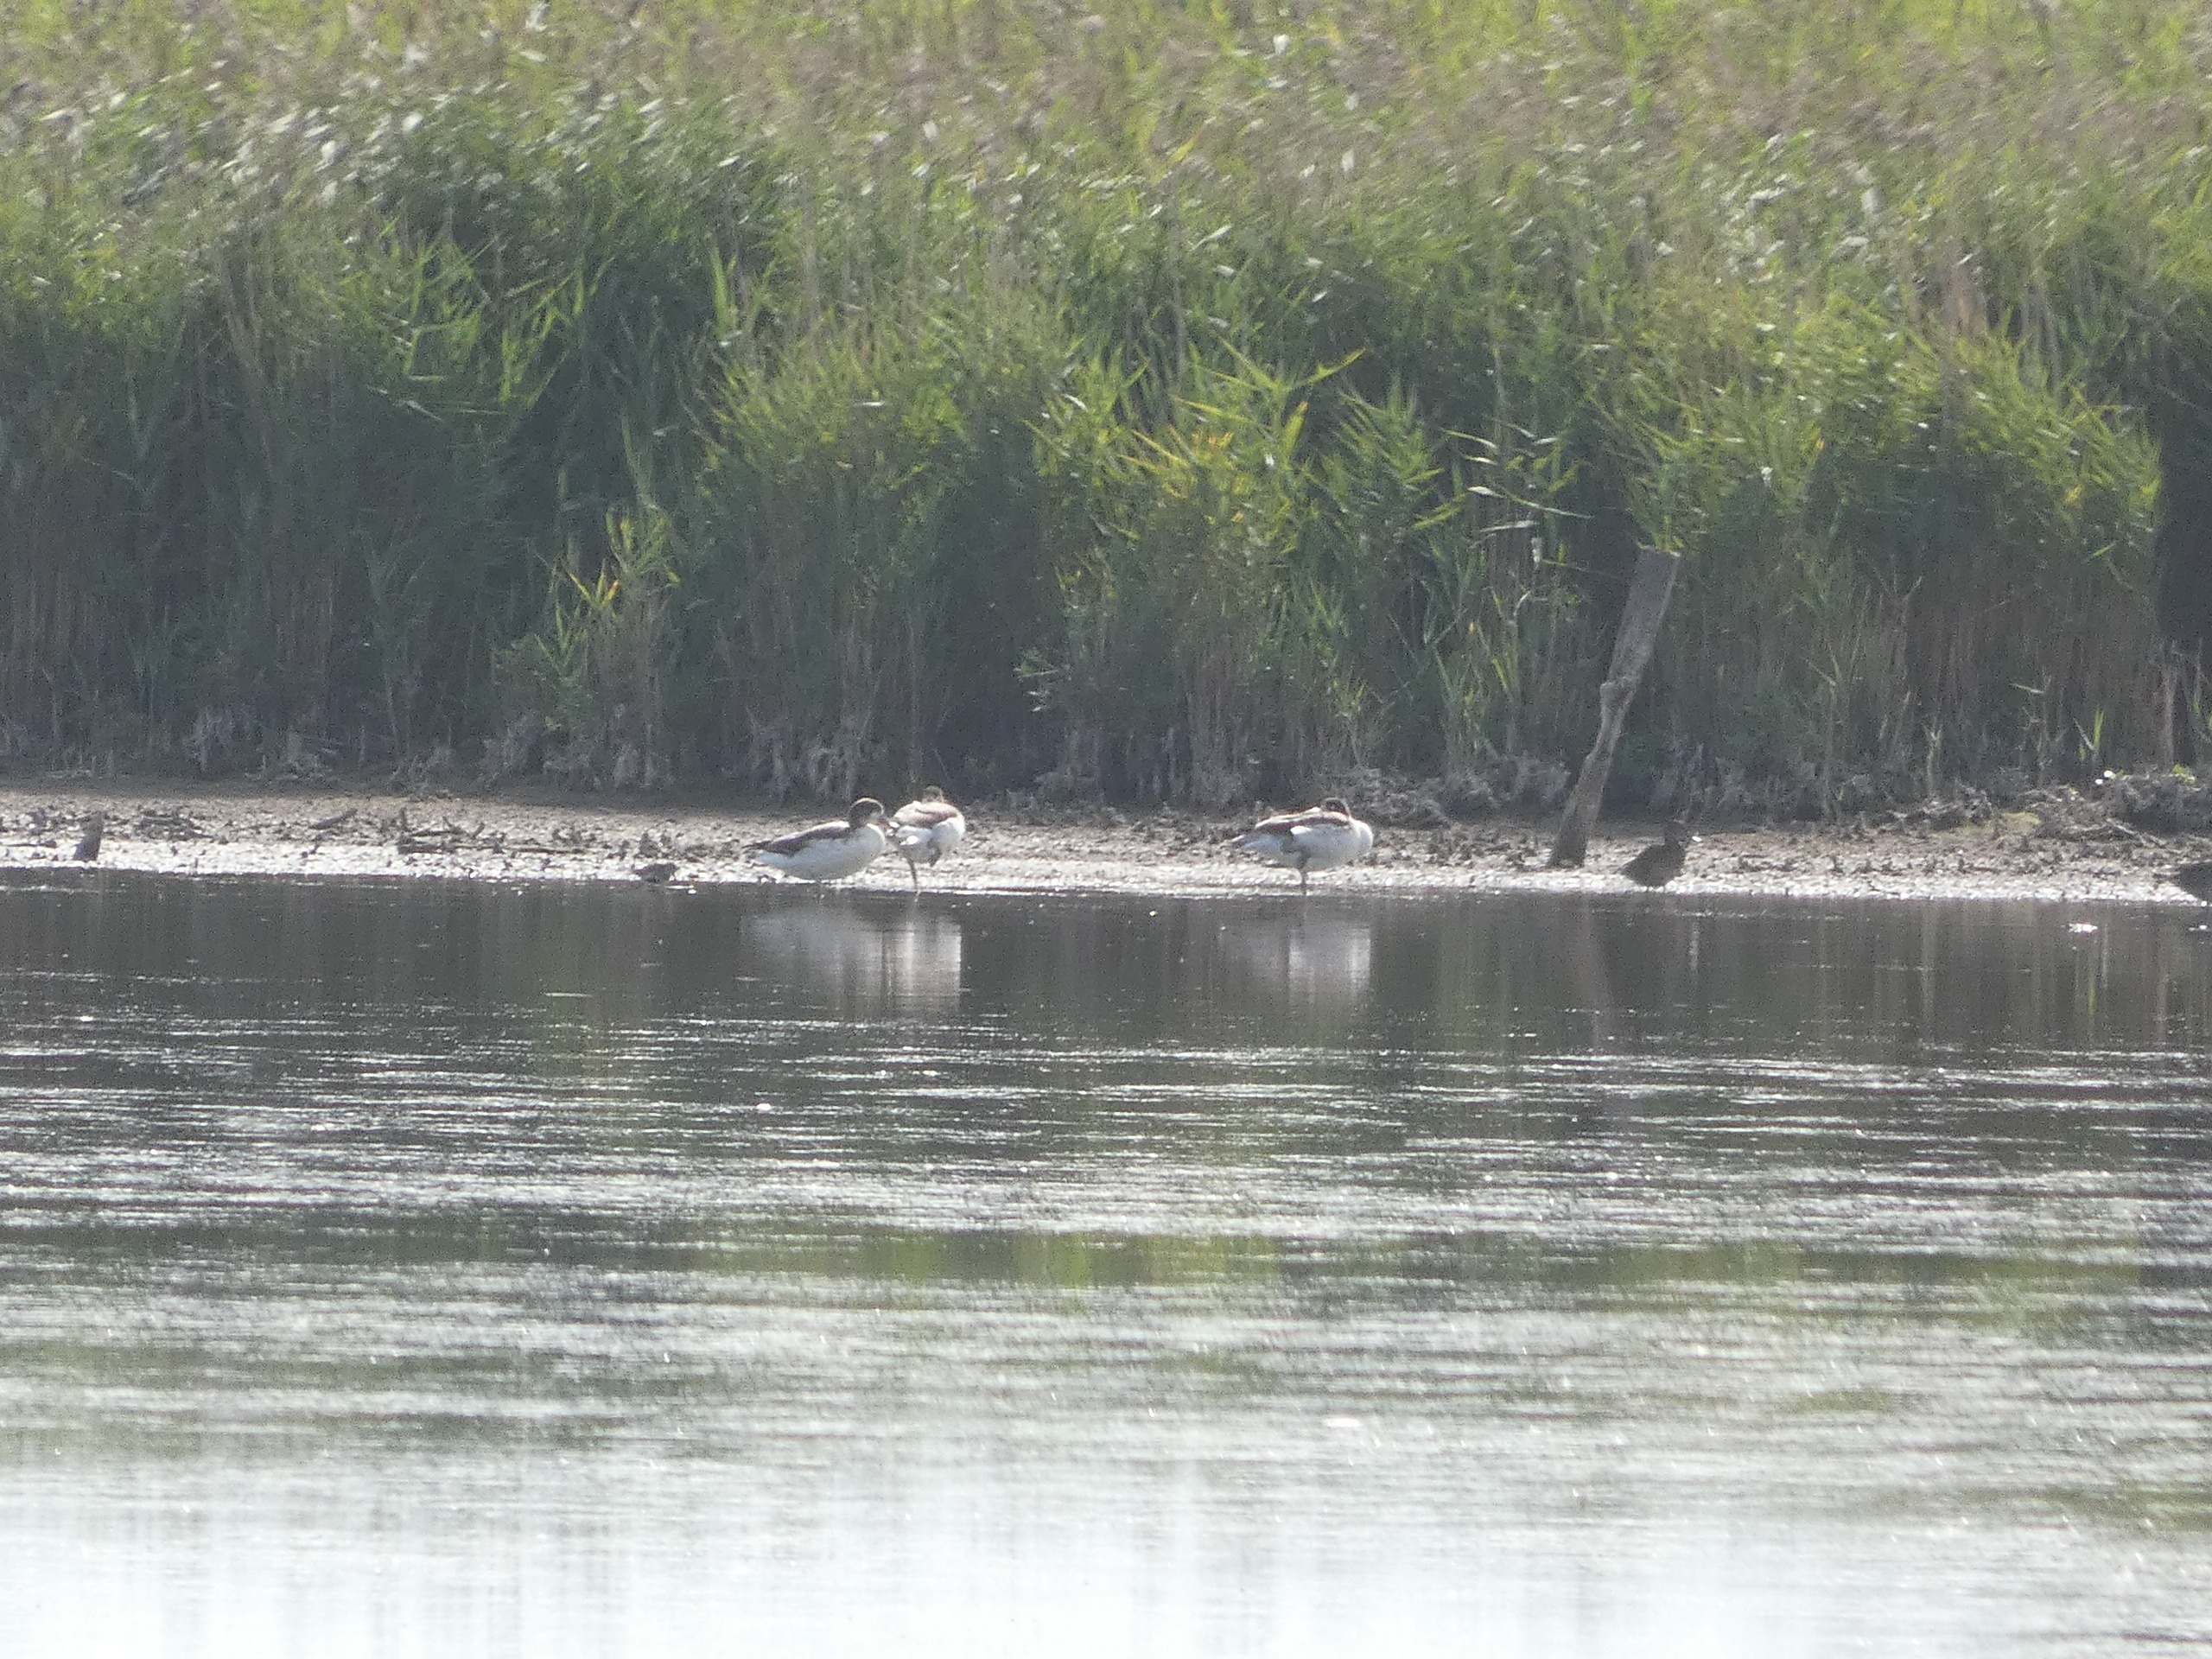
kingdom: Animalia
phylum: Chordata
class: Aves
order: Anseriformes
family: Anatidae
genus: Tadorna
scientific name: Tadorna tadorna
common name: Gravand
